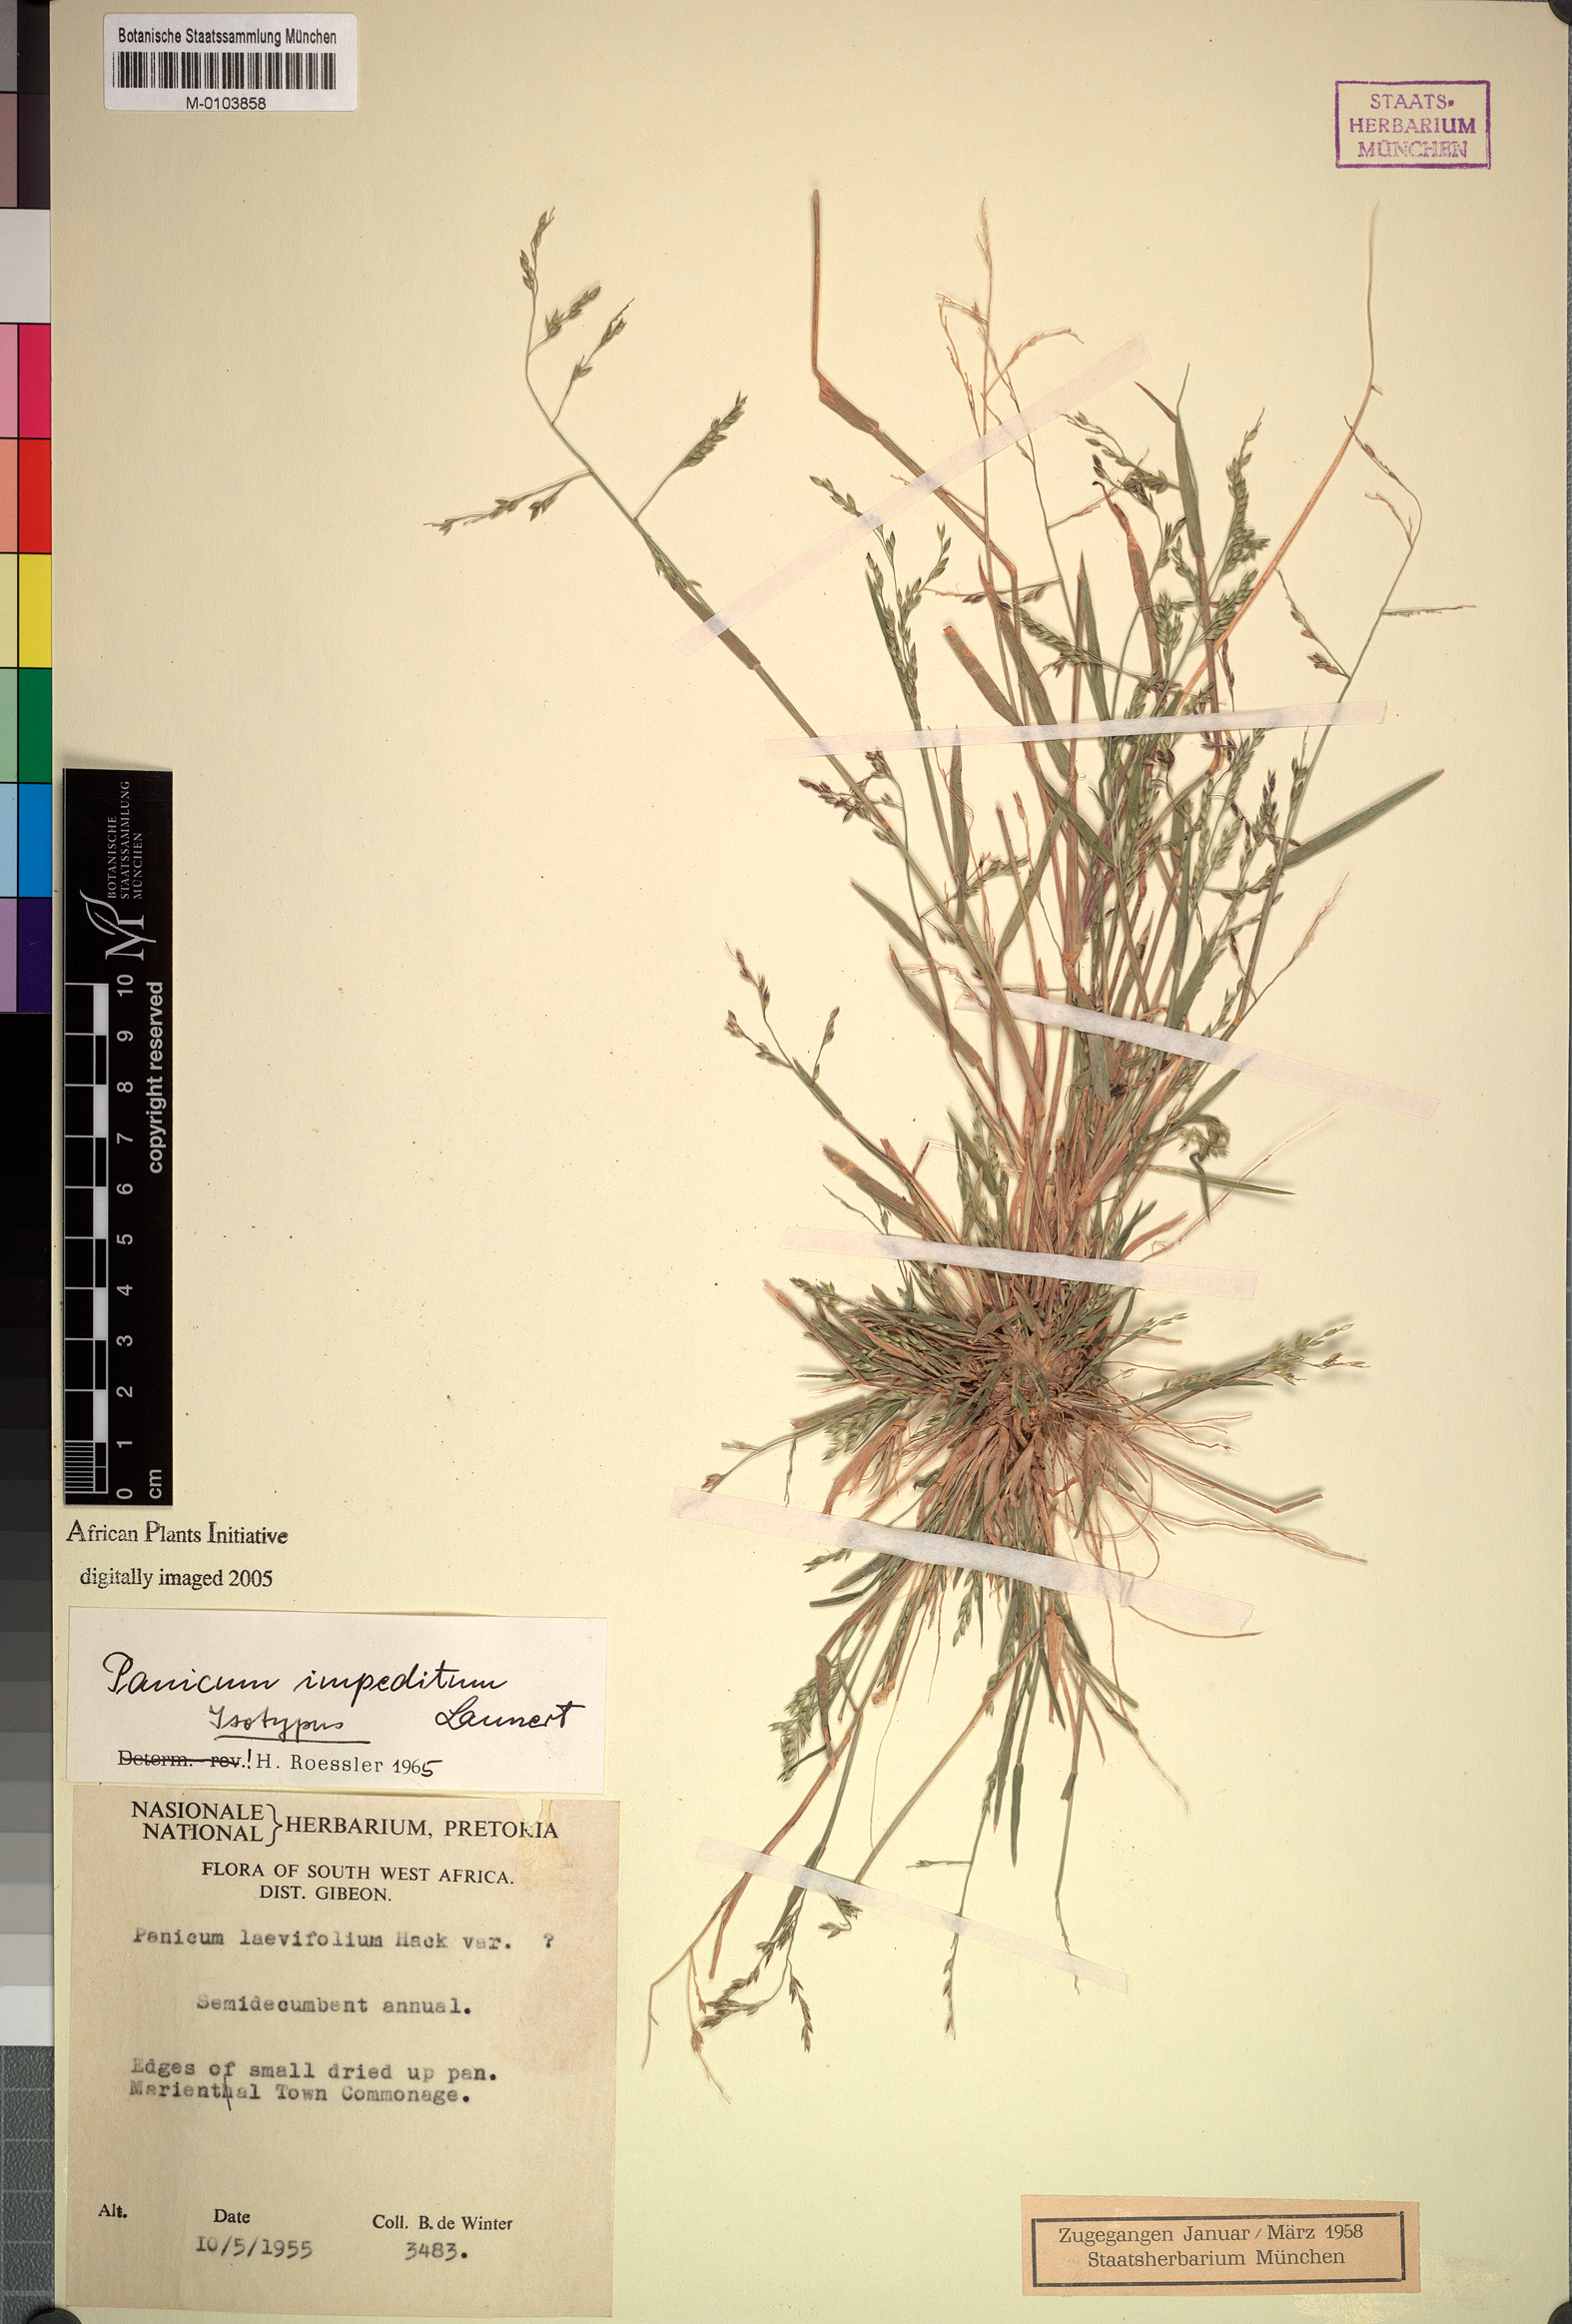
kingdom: Plantae
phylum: Tracheophyta
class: Liliopsida
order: Poales
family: Poaceae
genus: Panicum
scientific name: Panicum impeditum
